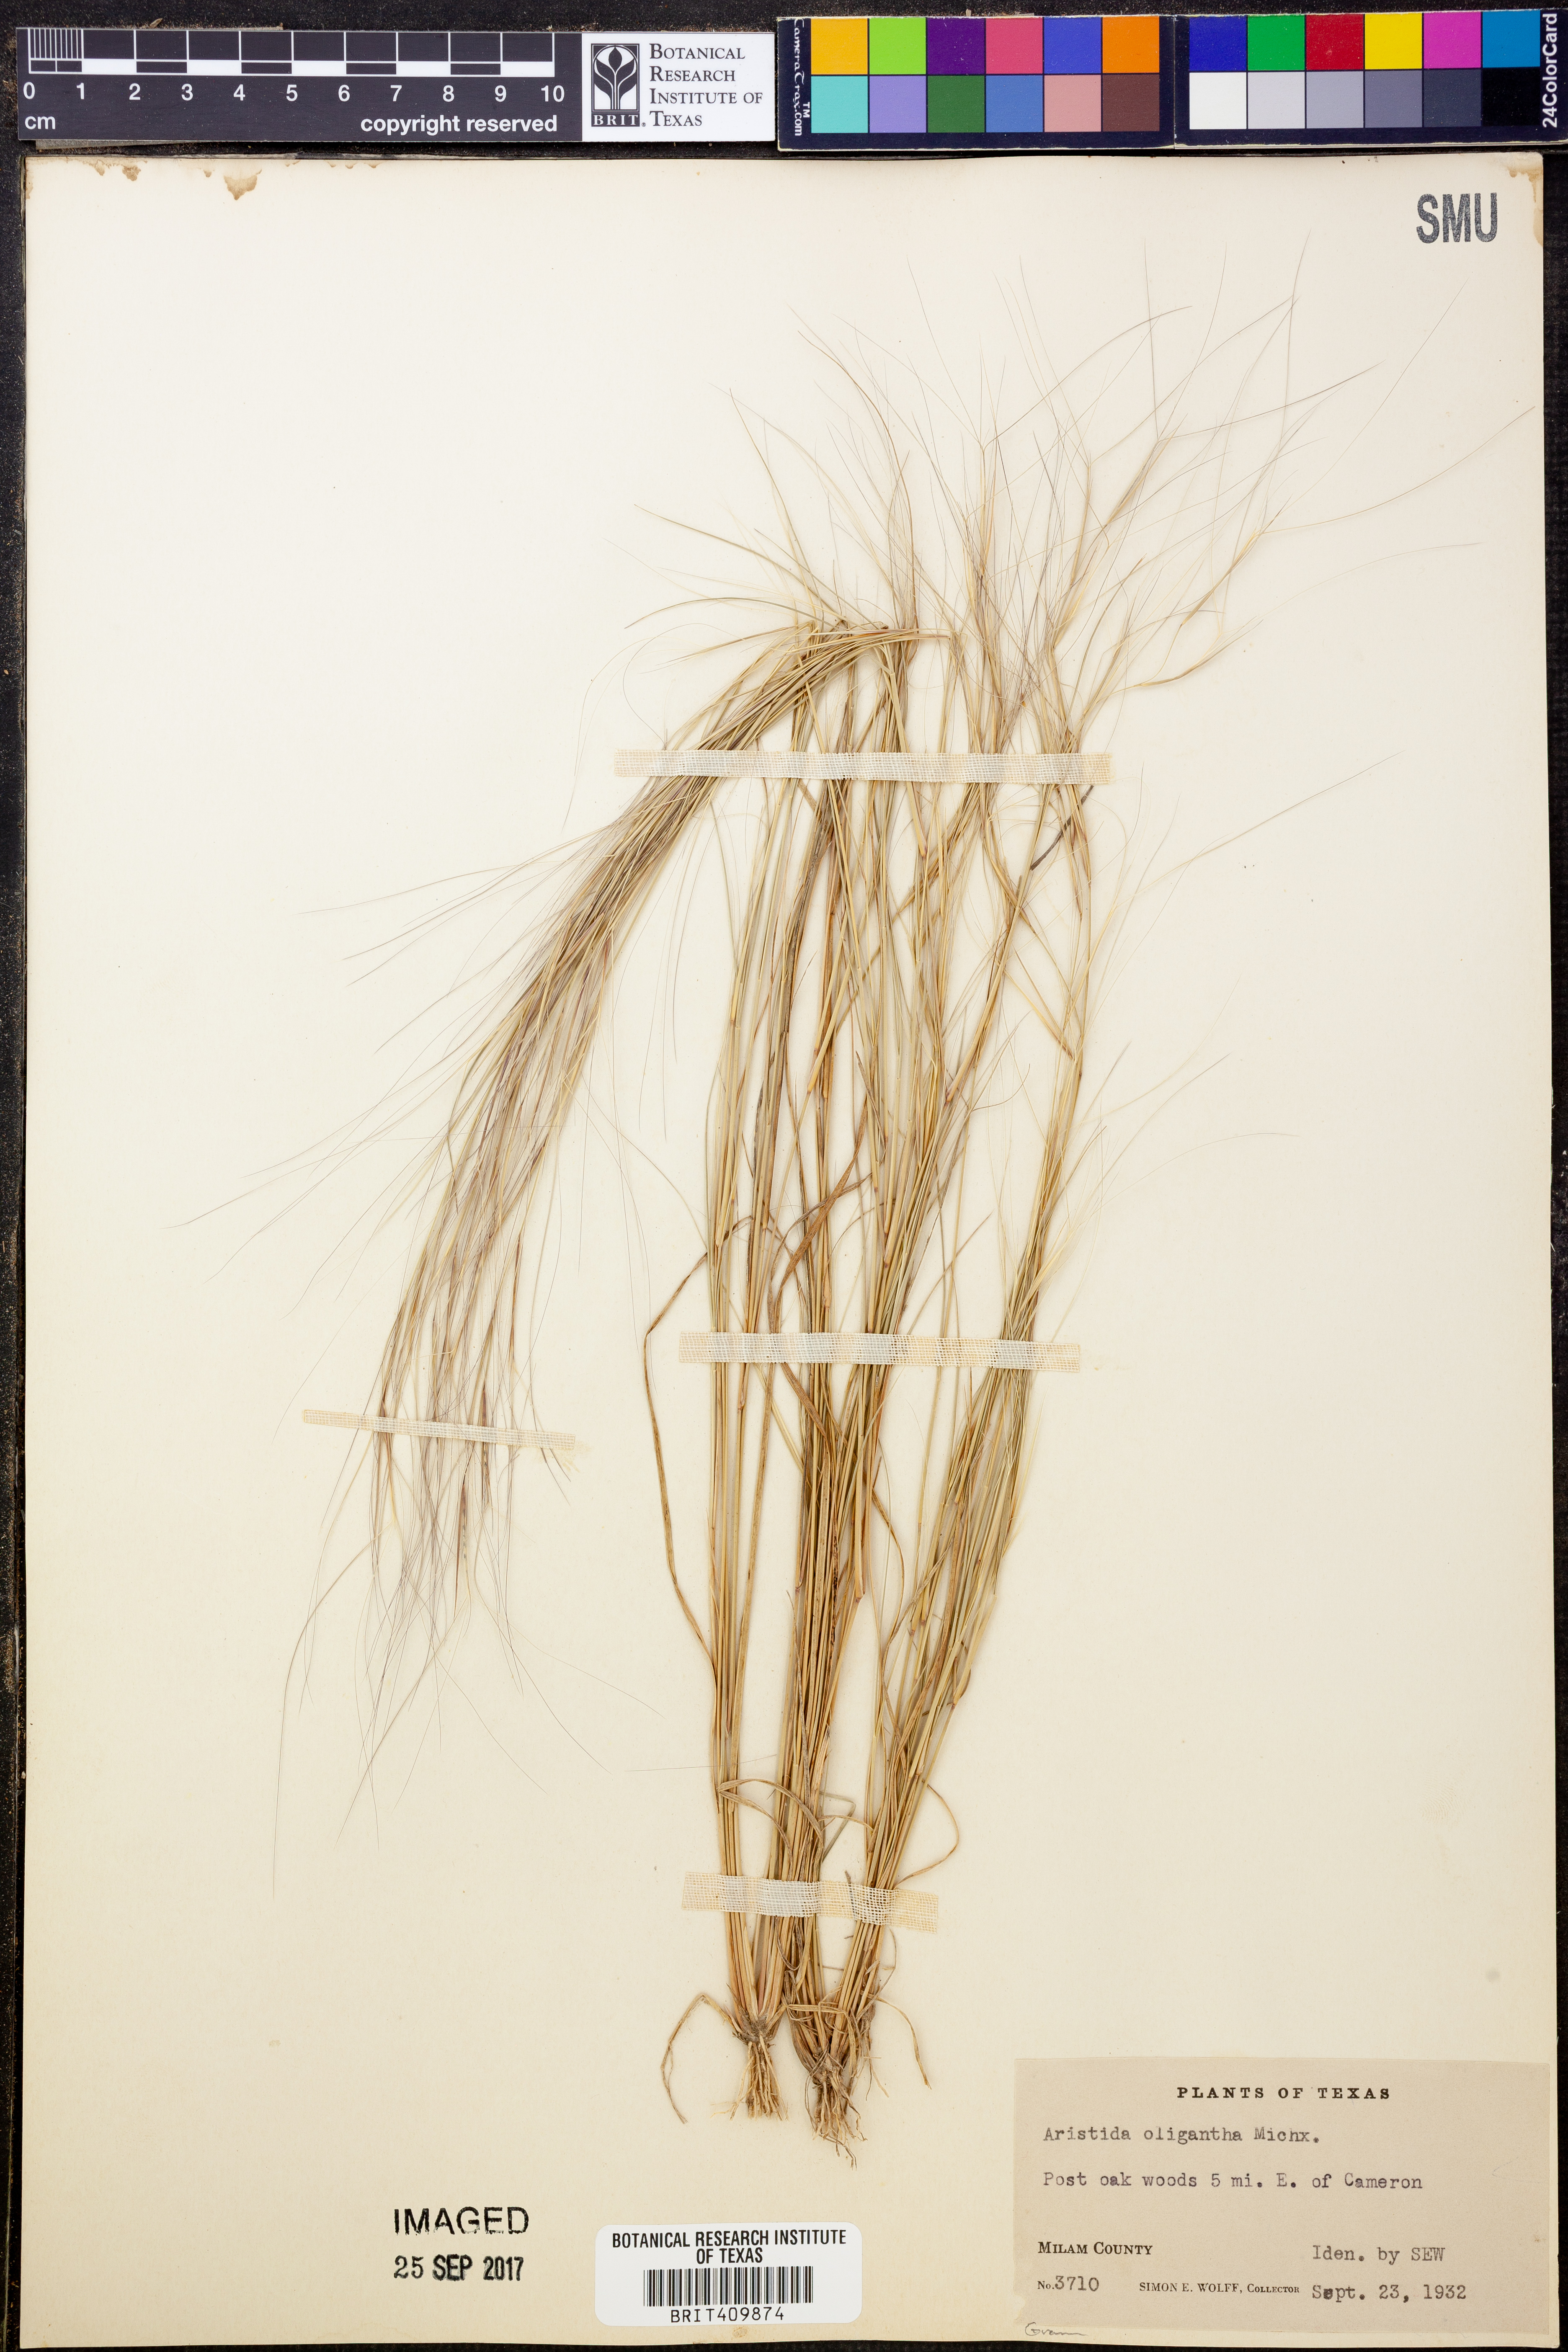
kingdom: Plantae
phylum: Tracheophyta
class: Liliopsida
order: Poales
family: Poaceae
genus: Aristida
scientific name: Aristida oligantha
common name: Few-flowered aristida
